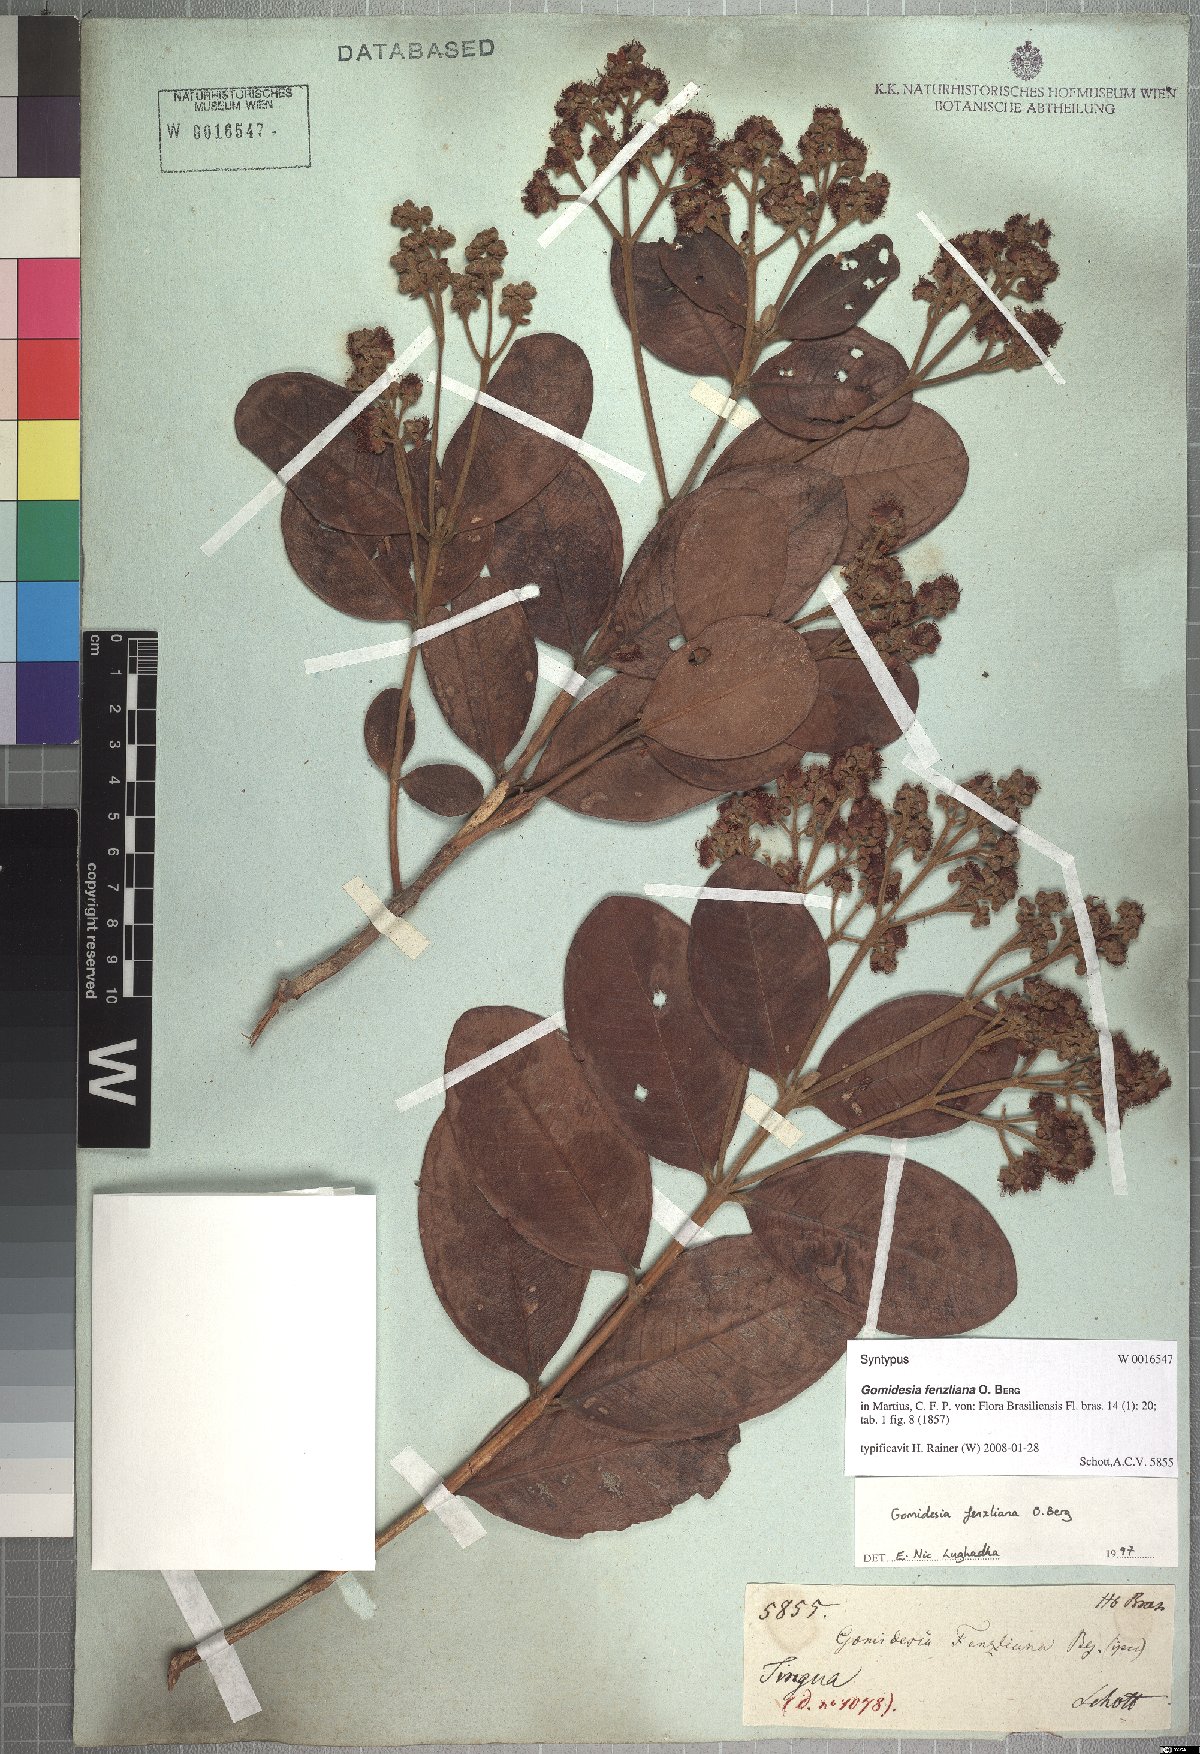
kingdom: Plantae
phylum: Tracheophyta
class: Magnoliopsida
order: Myrtales
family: Myrtaceae
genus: Myrcia
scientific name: Myrcia ilheosensis
